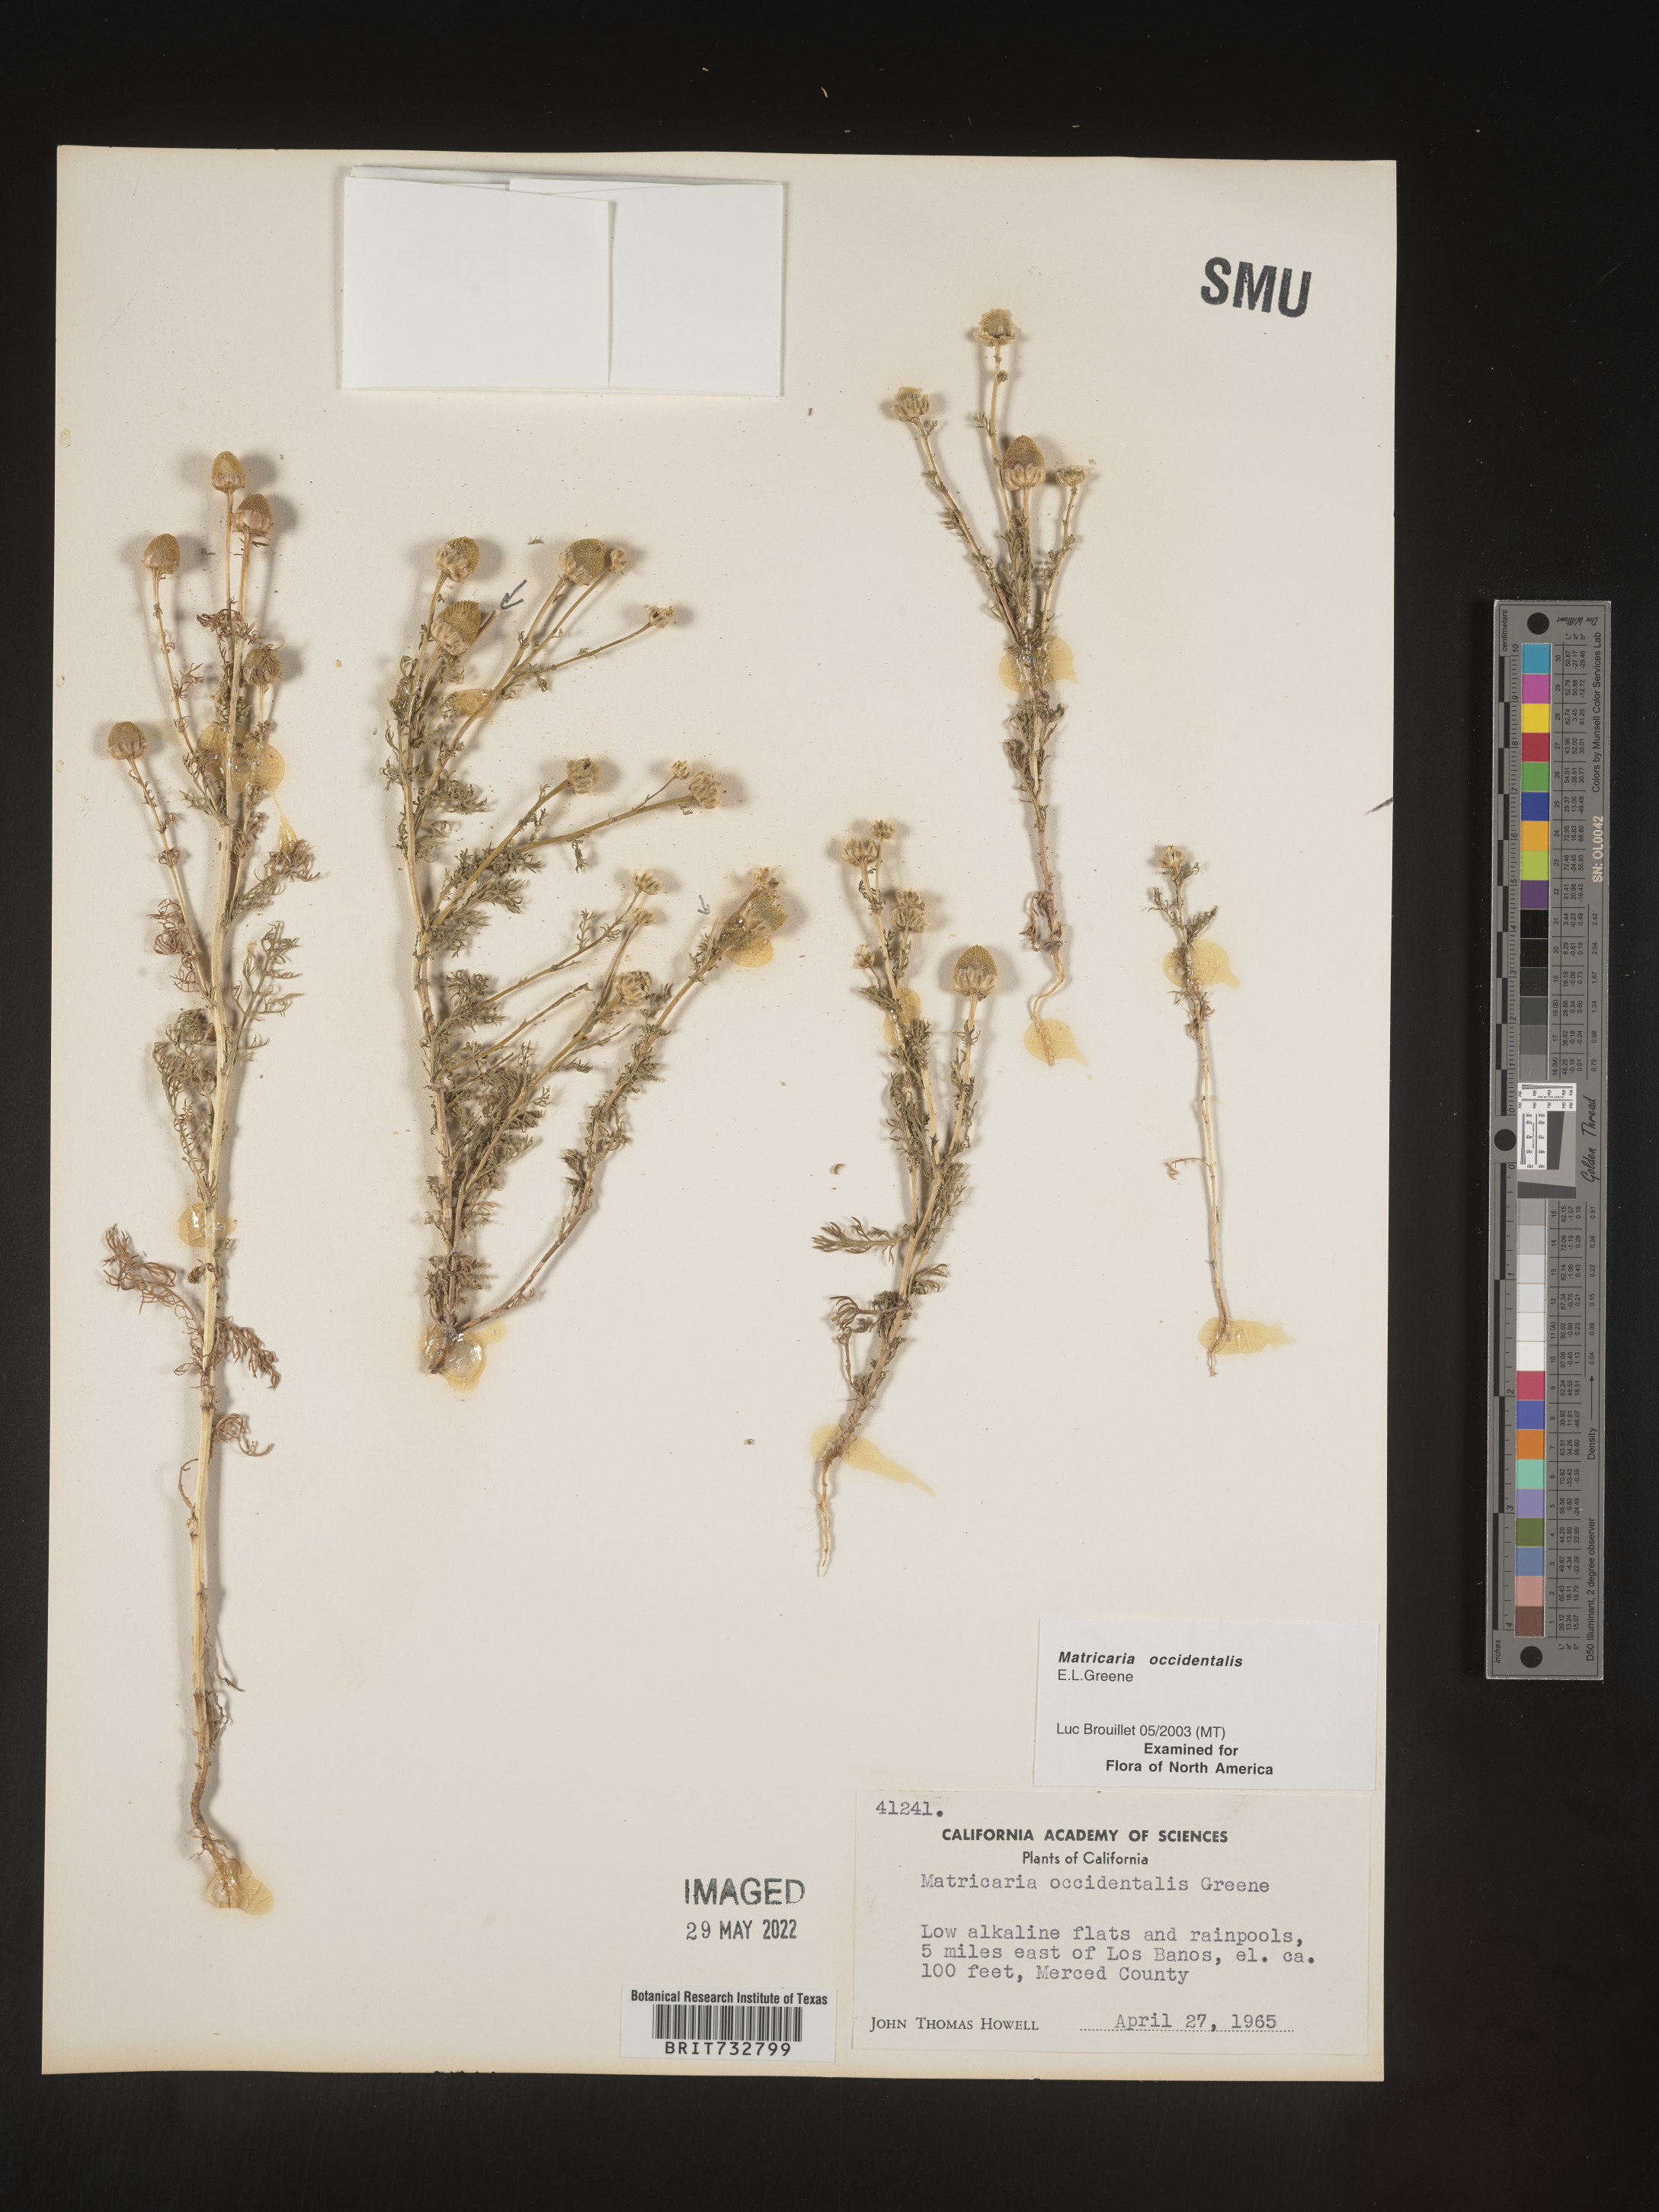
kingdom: Plantae
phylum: Tracheophyta
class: Magnoliopsida
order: Asterales
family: Asteraceae
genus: Matricaria
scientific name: Matricaria occidentalis
